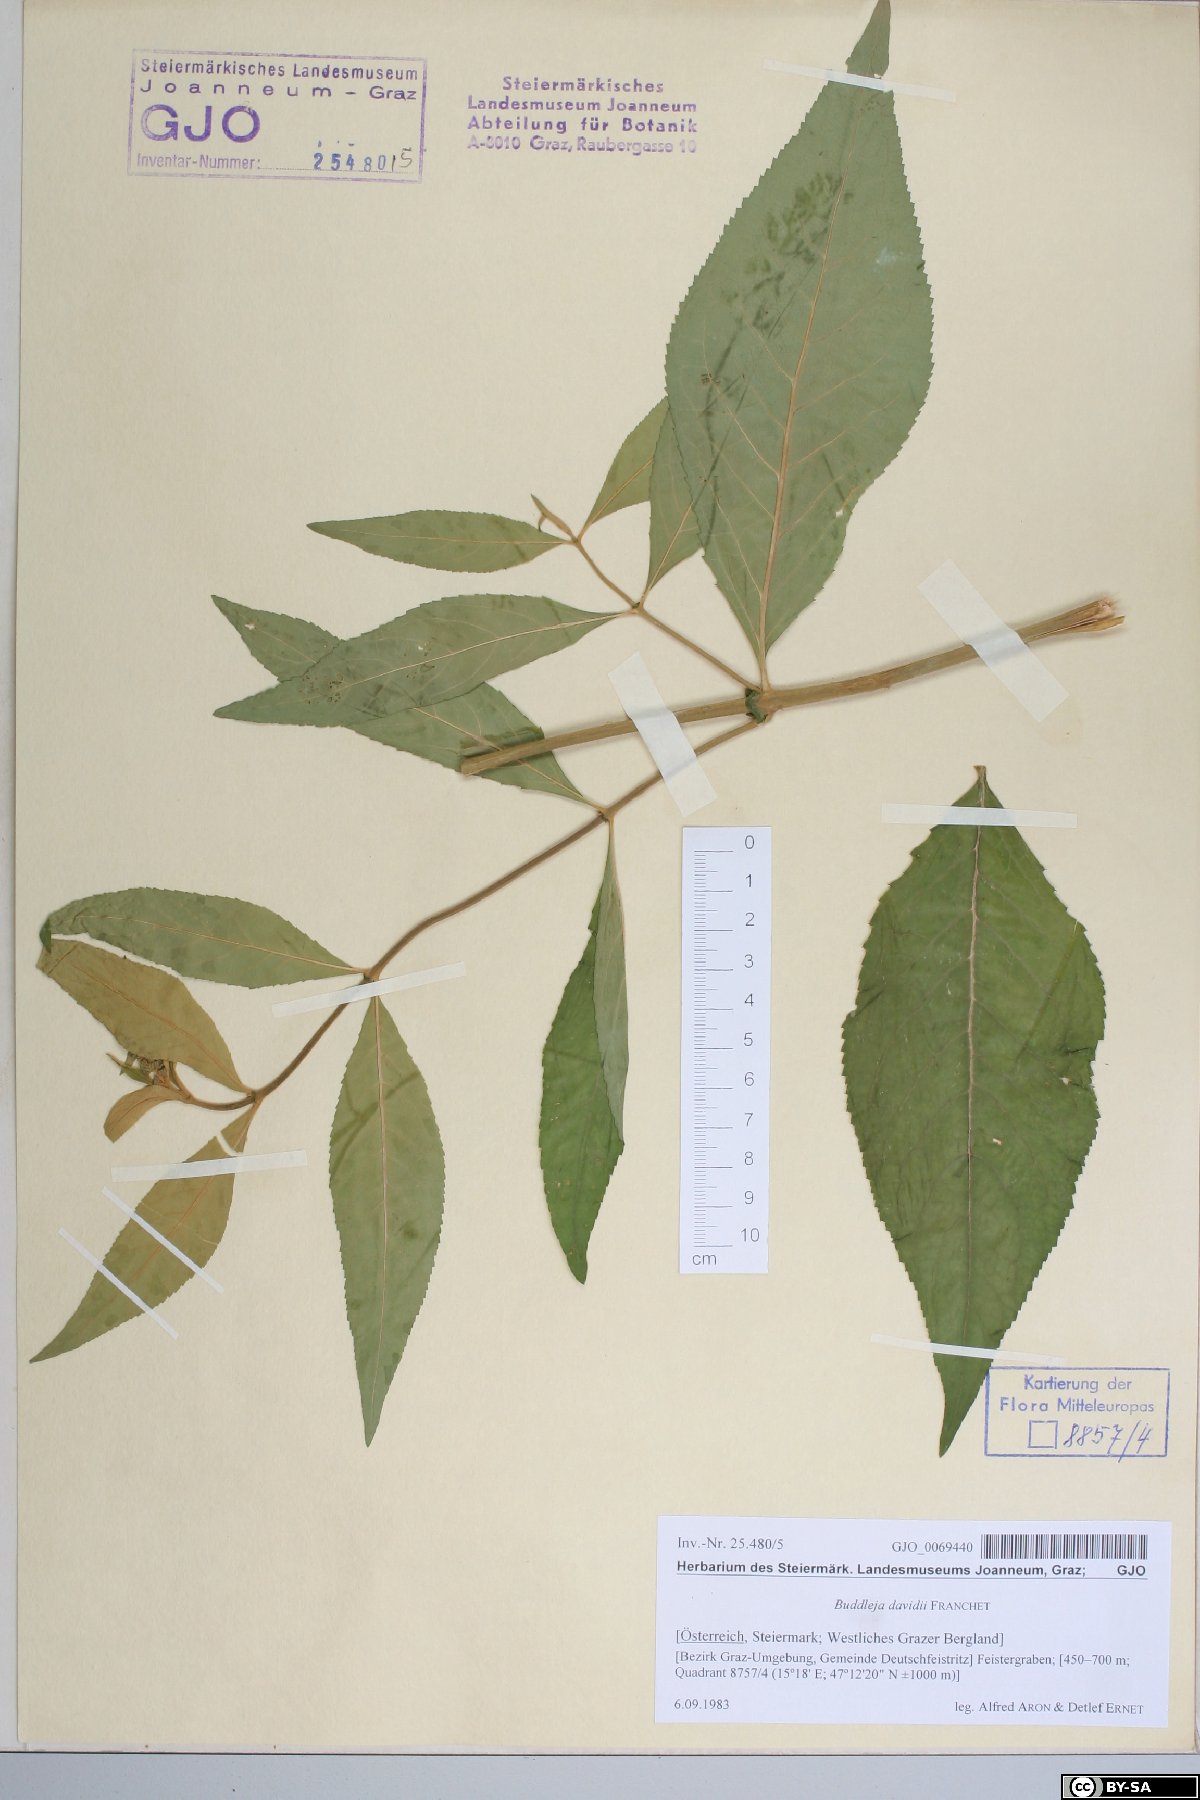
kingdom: Plantae
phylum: Tracheophyta
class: Magnoliopsida
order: Lamiales
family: Scrophulariaceae
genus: Buddleja
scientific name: Buddleja davidii
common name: Butterfly-bush
